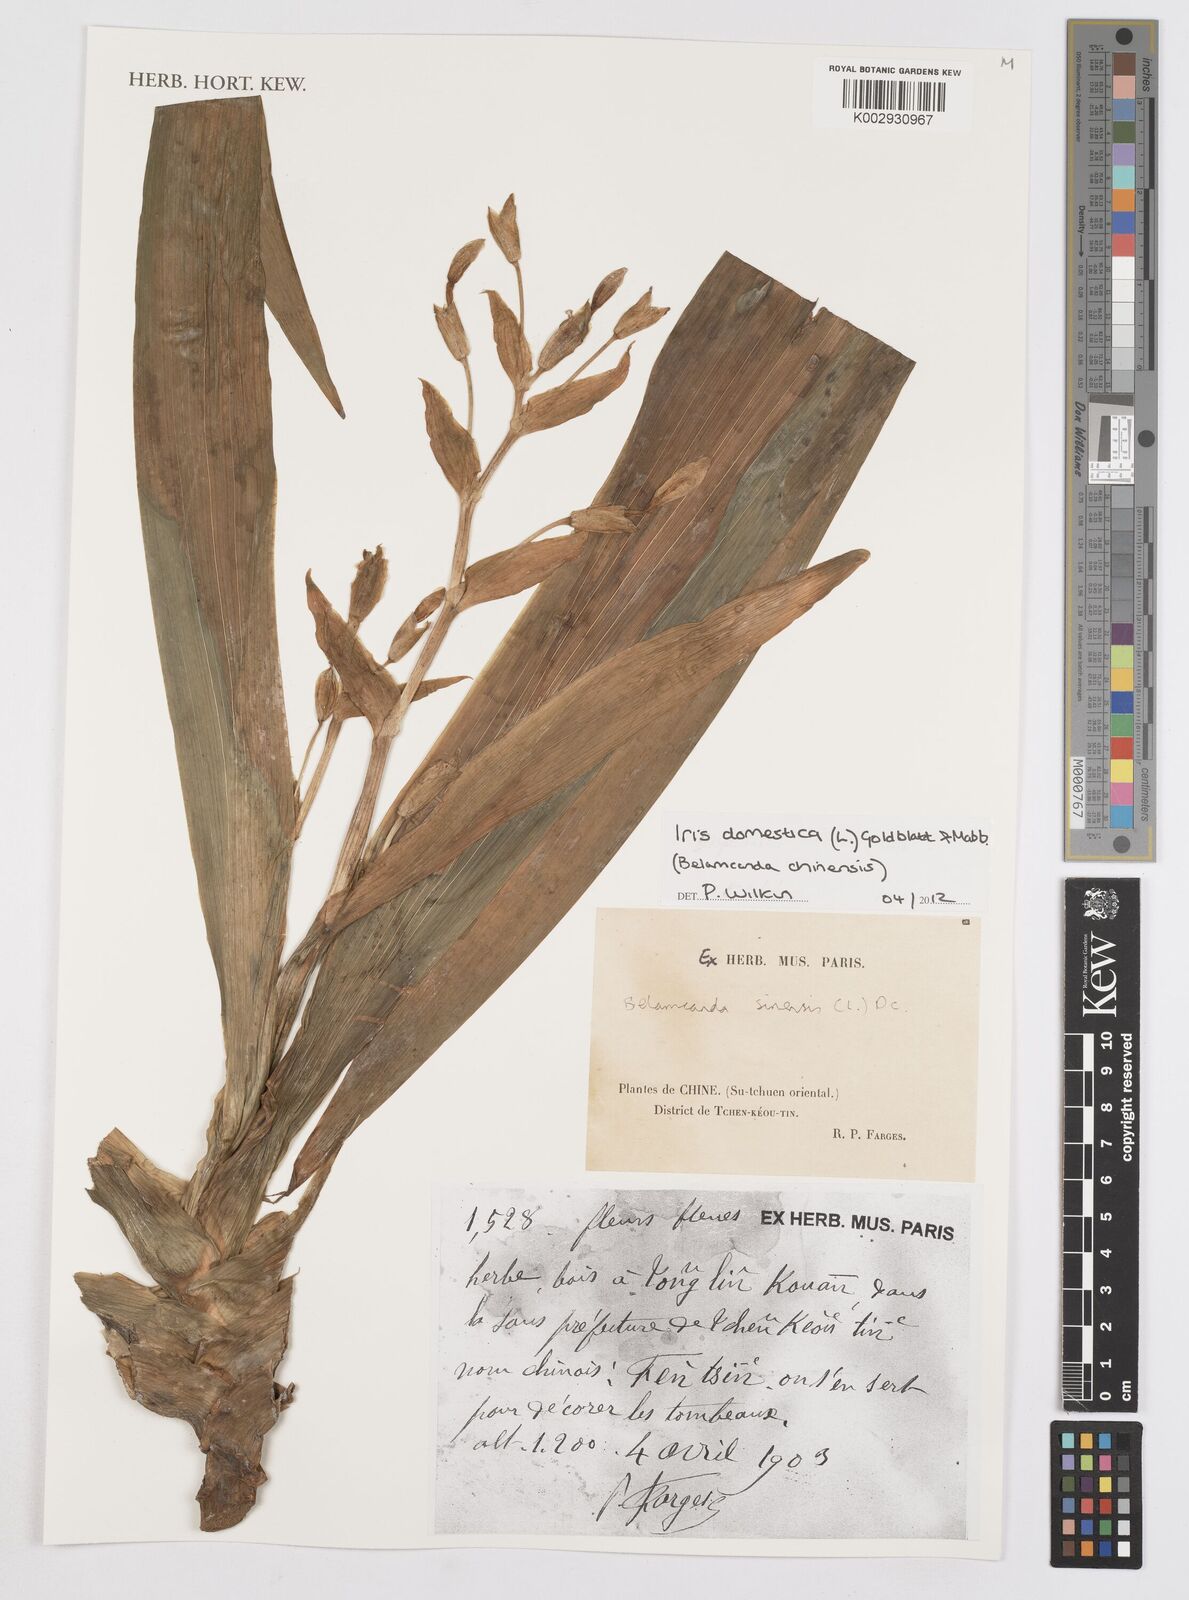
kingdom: Plantae
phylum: Tracheophyta
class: Liliopsida
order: Asparagales
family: Iridaceae
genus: Iris
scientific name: Iris domestica
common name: Belamcanda
